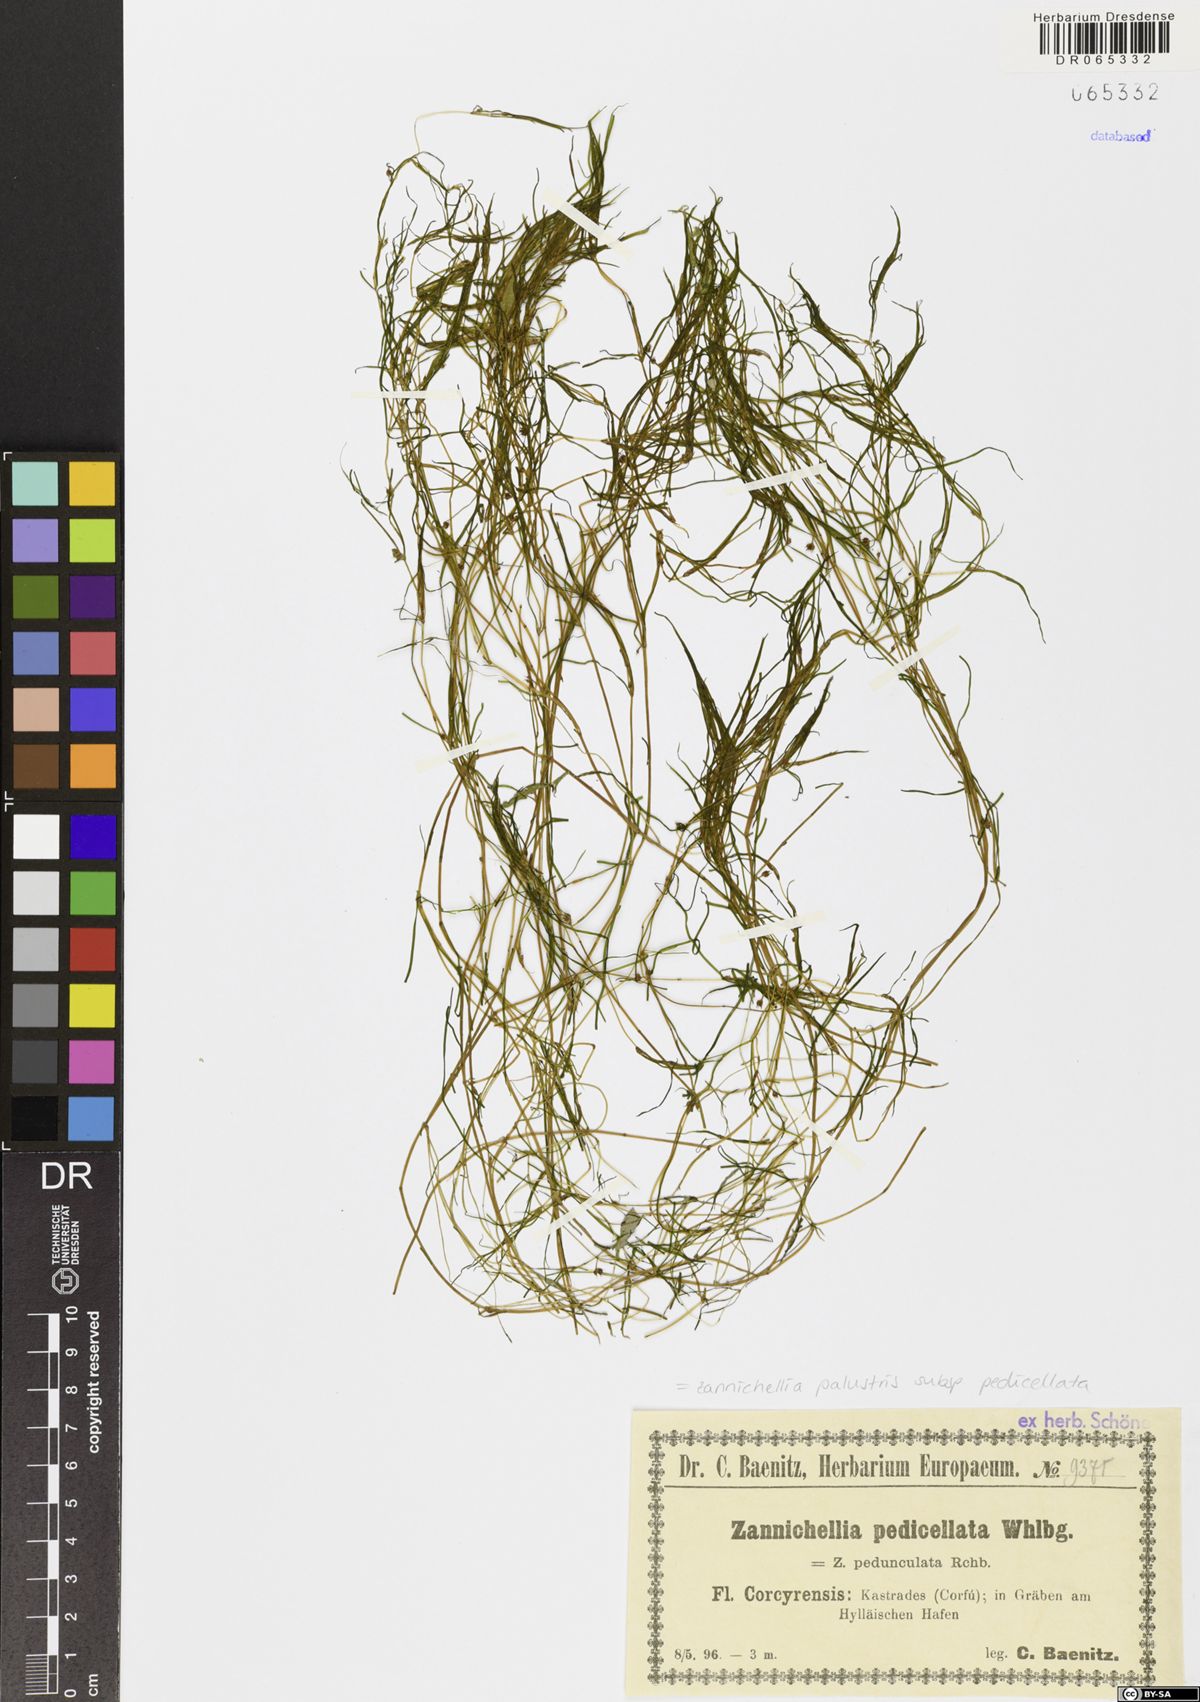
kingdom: Plantae
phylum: Tracheophyta
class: Liliopsida
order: Alismatales
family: Potamogetonaceae
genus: Zannichellia
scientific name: Zannichellia palustris
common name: Horned pondweed
